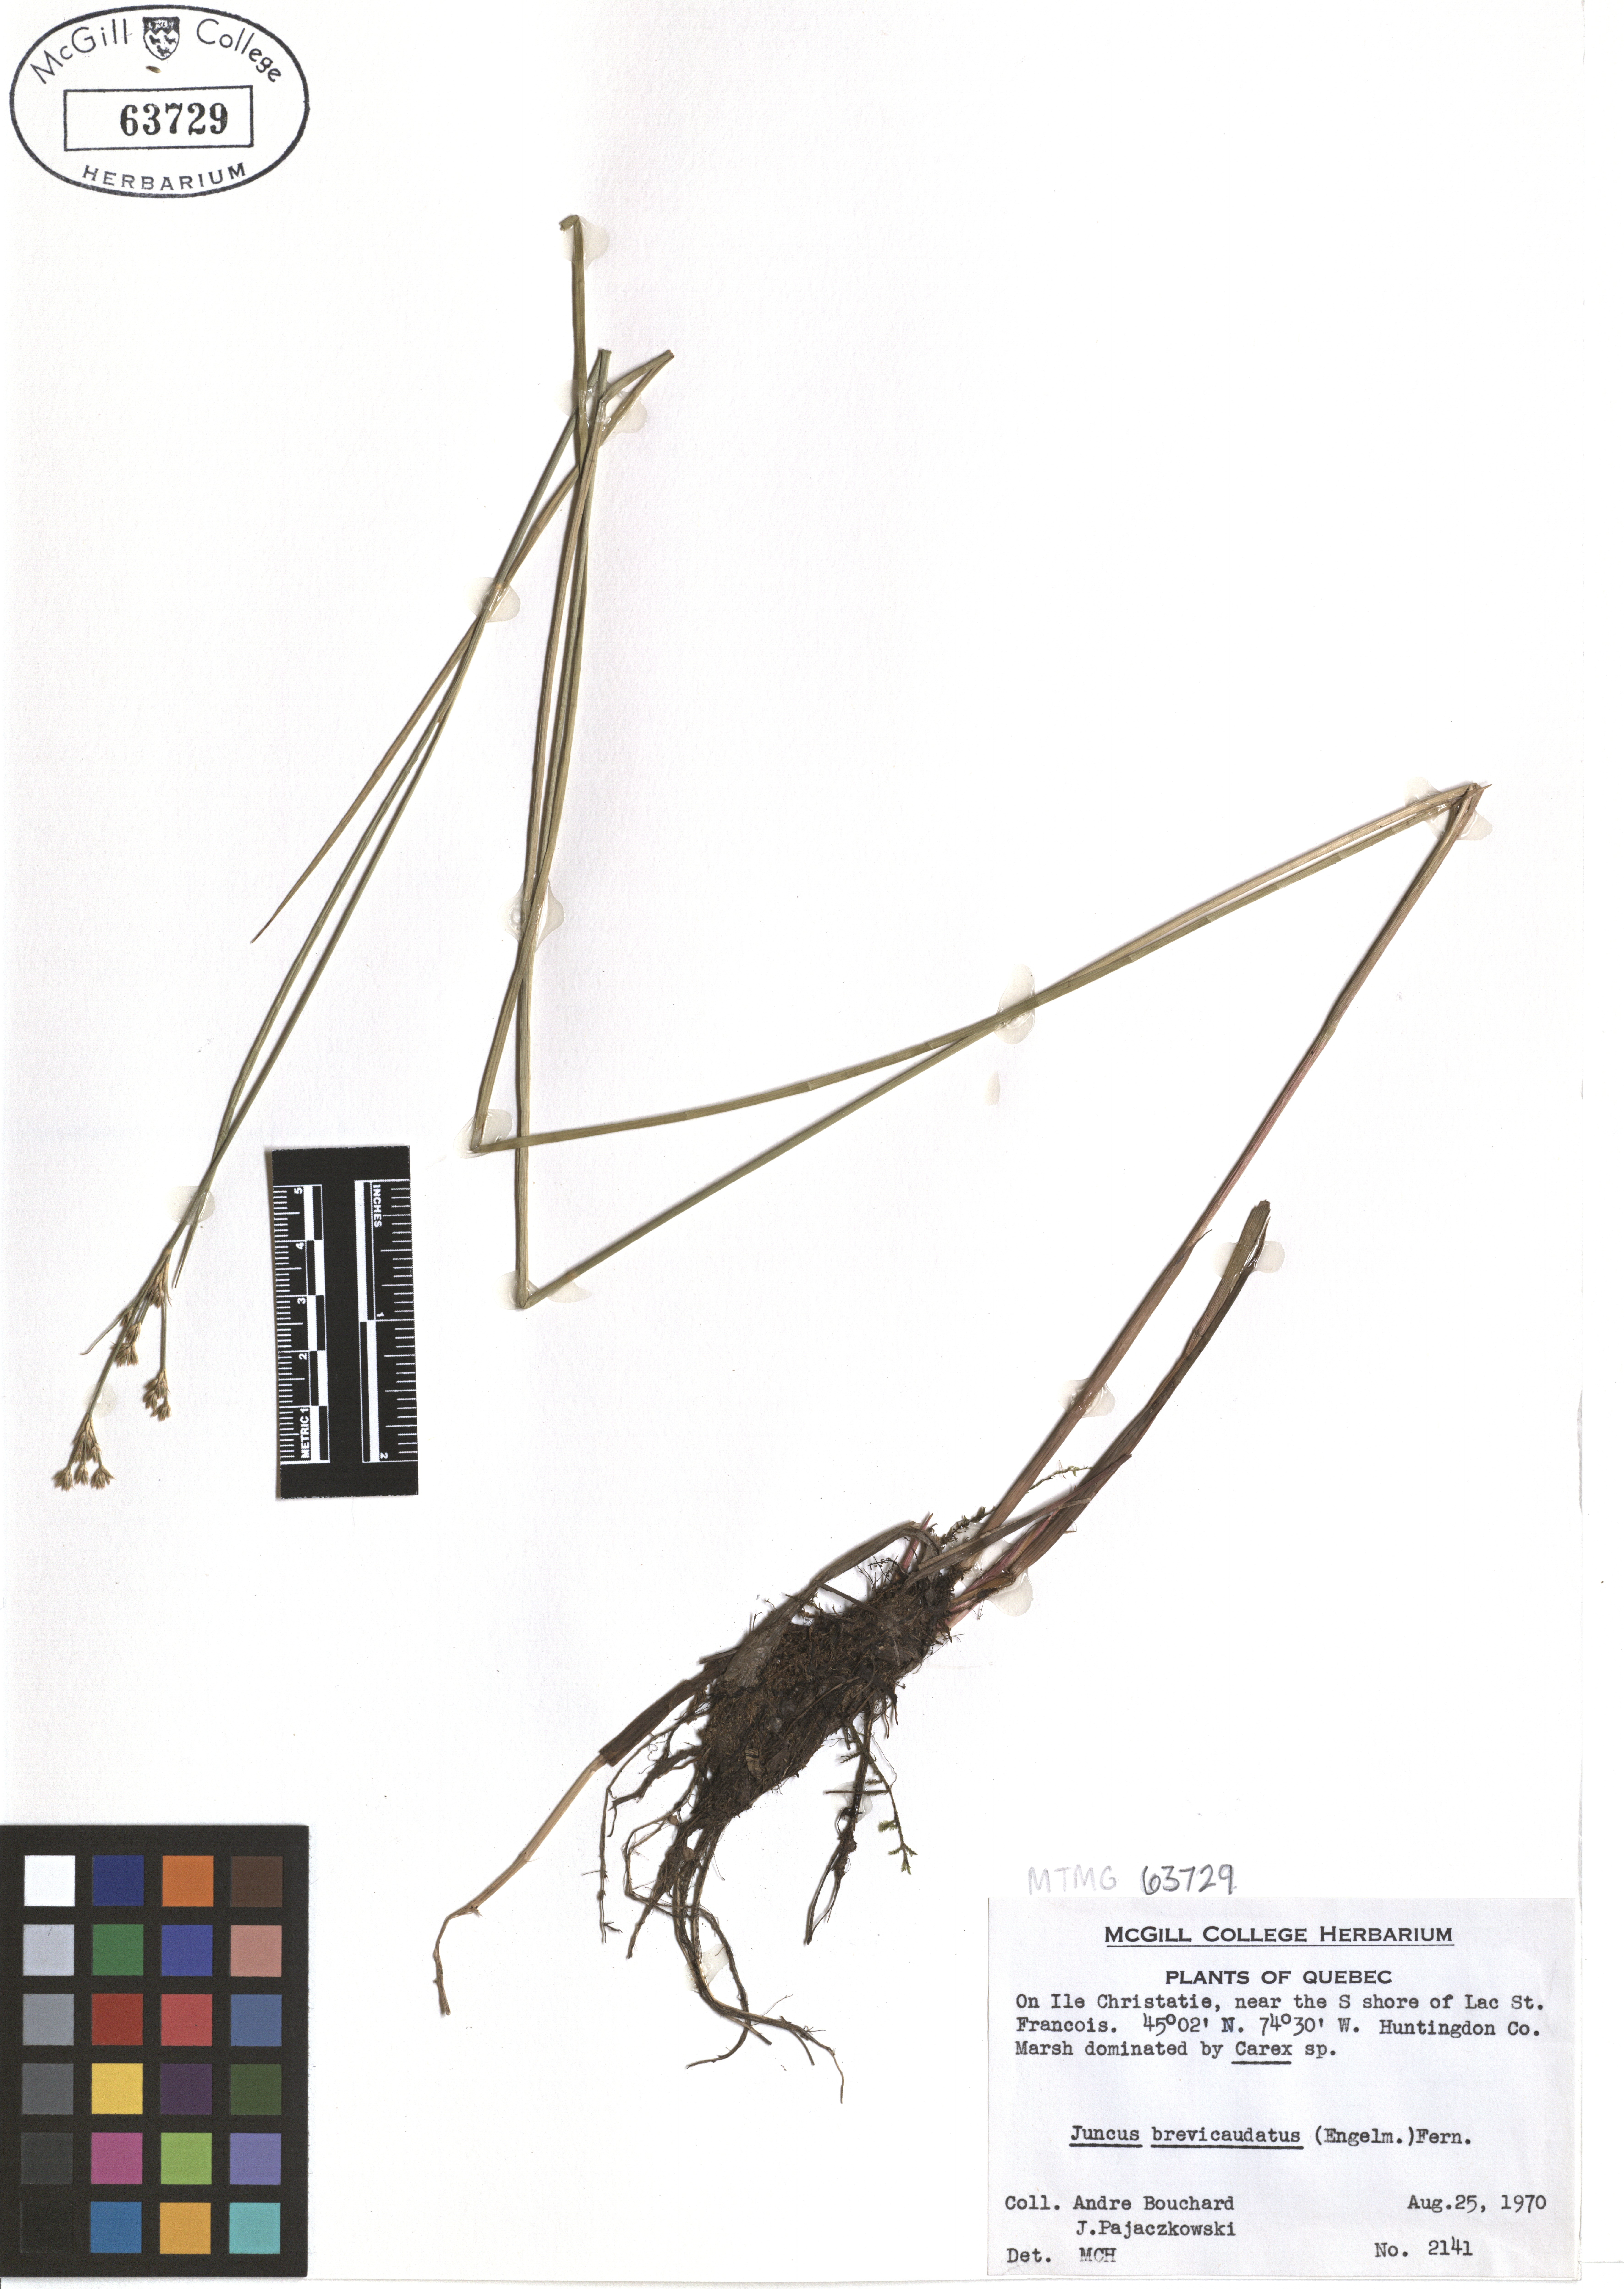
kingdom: Plantae
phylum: Tracheophyta
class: Liliopsida
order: Poales
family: Juncaceae
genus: Juncus
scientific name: Juncus brevicaudatus
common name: Narrow-panicle rush
